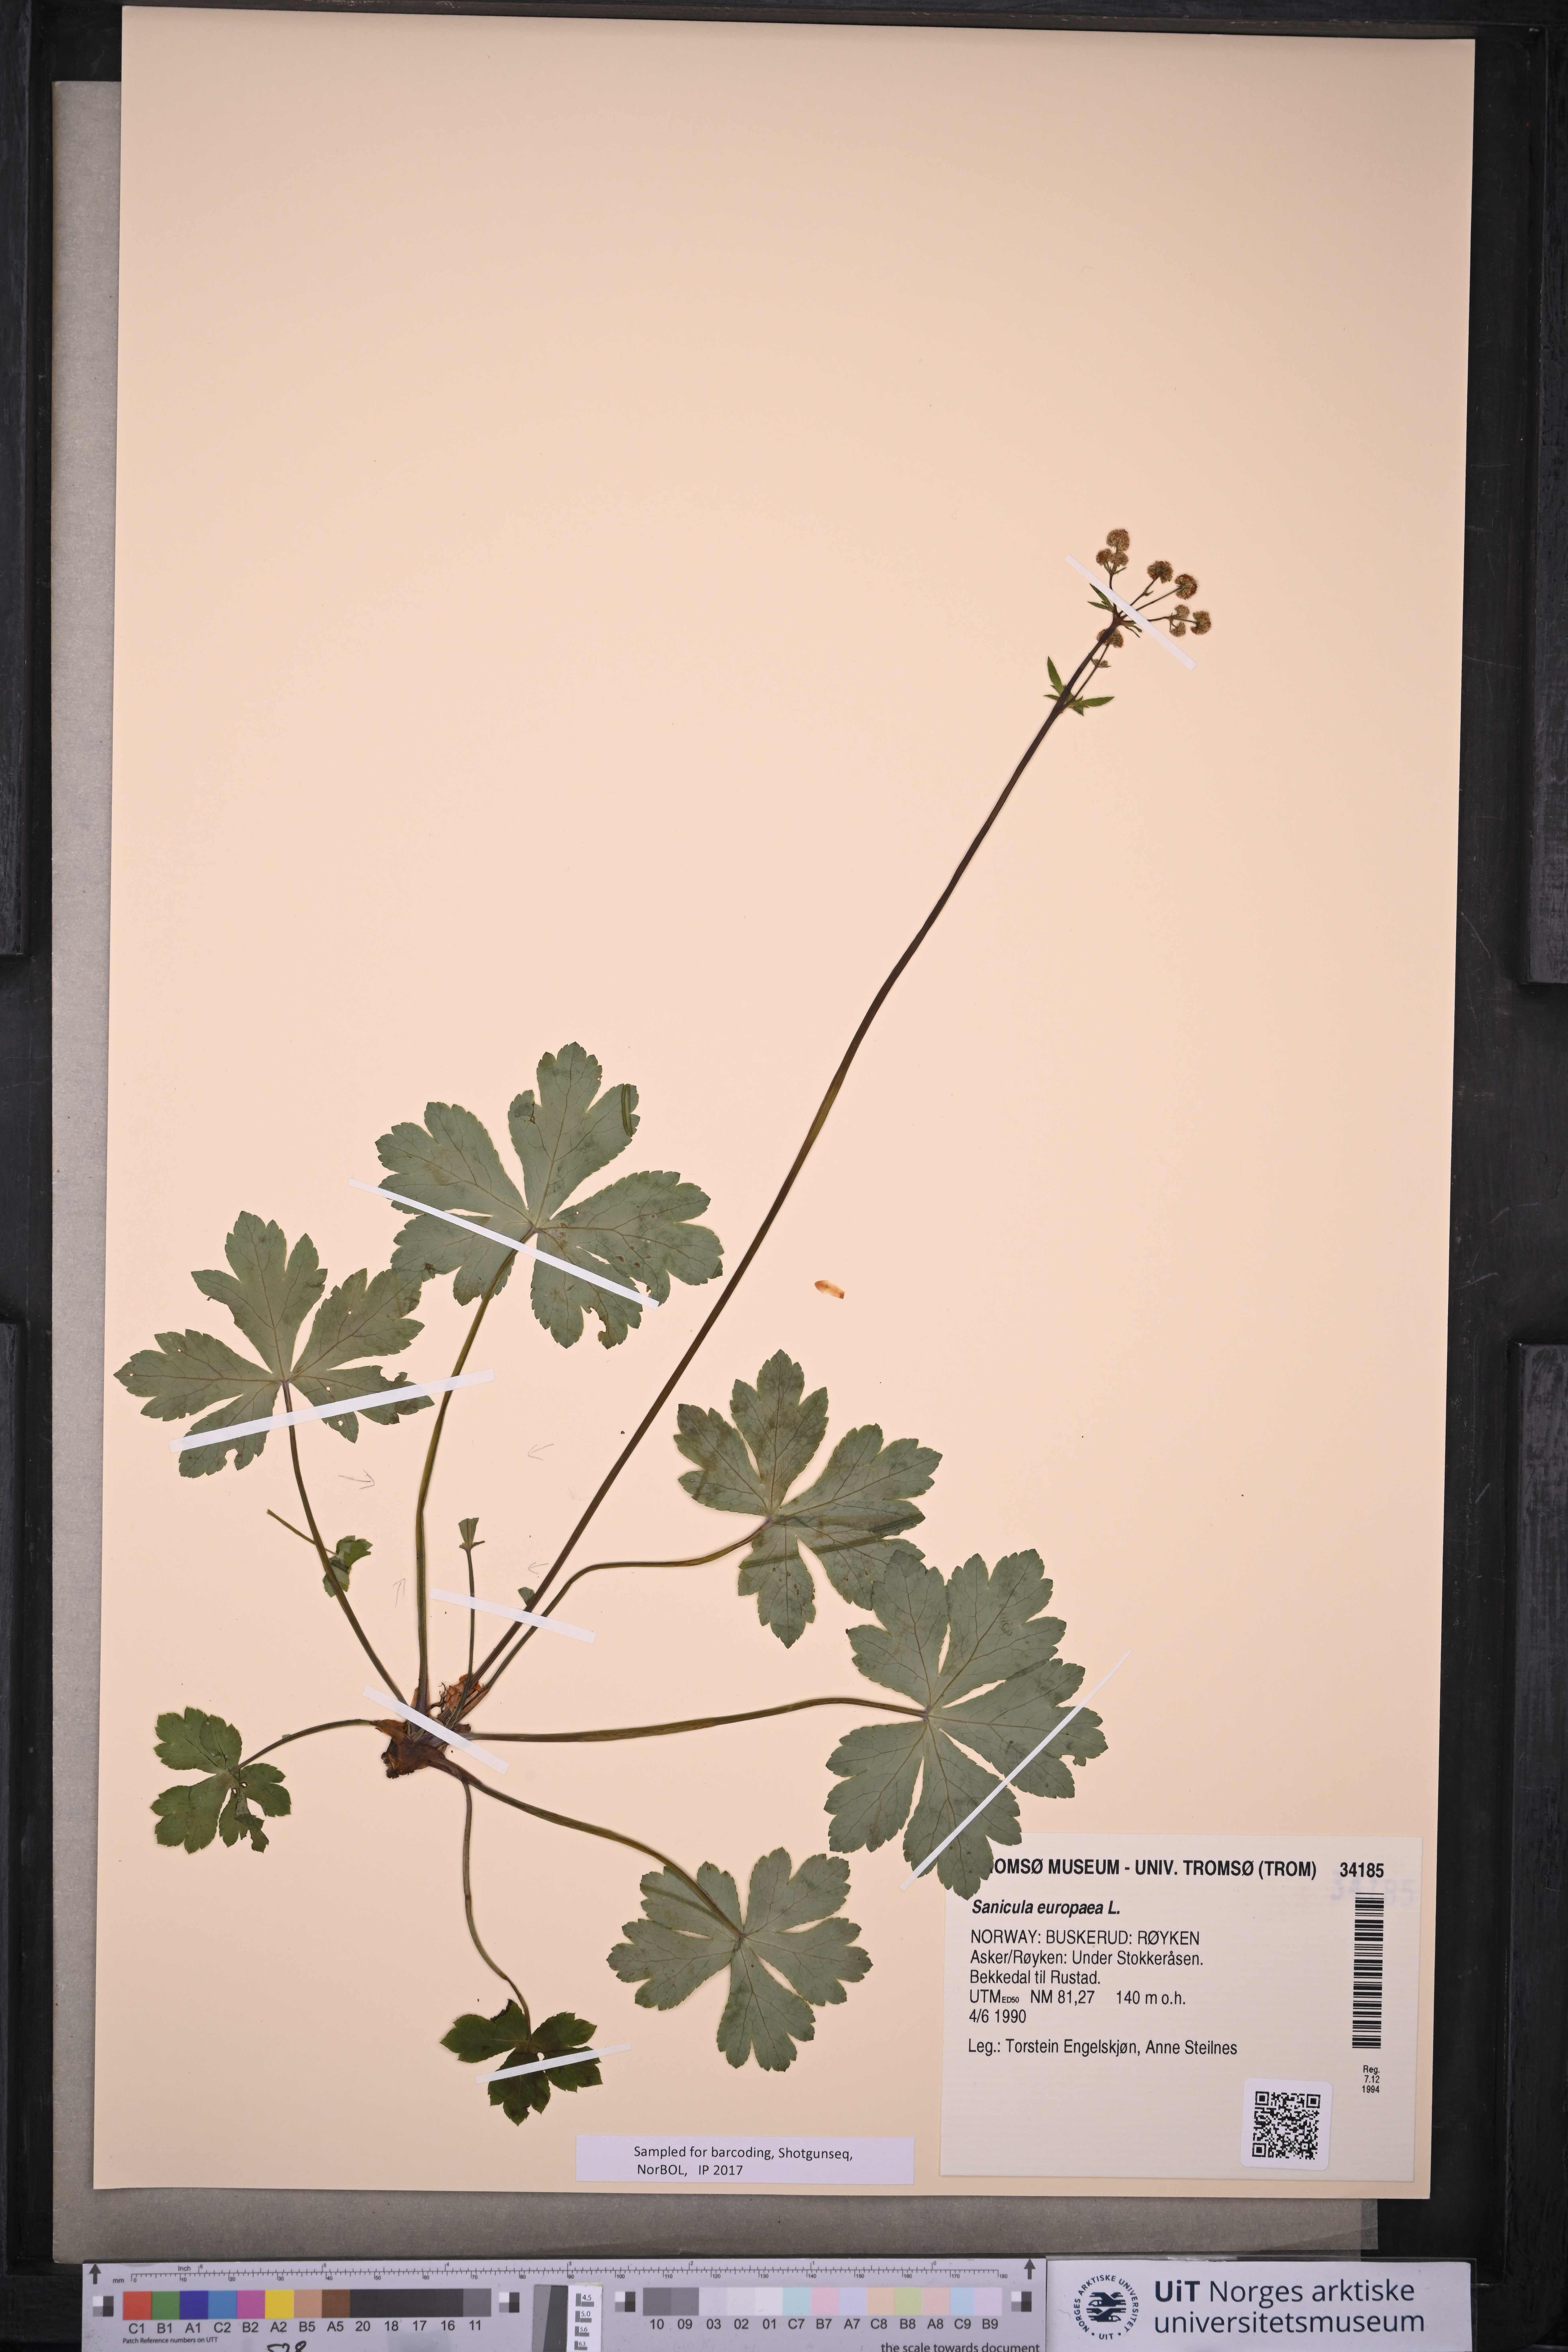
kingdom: Plantae
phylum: Tracheophyta
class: Magnoliopsida
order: Apiales
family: Apiaceae
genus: Sanicula
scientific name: Sanicula europaea
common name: Sanicle
